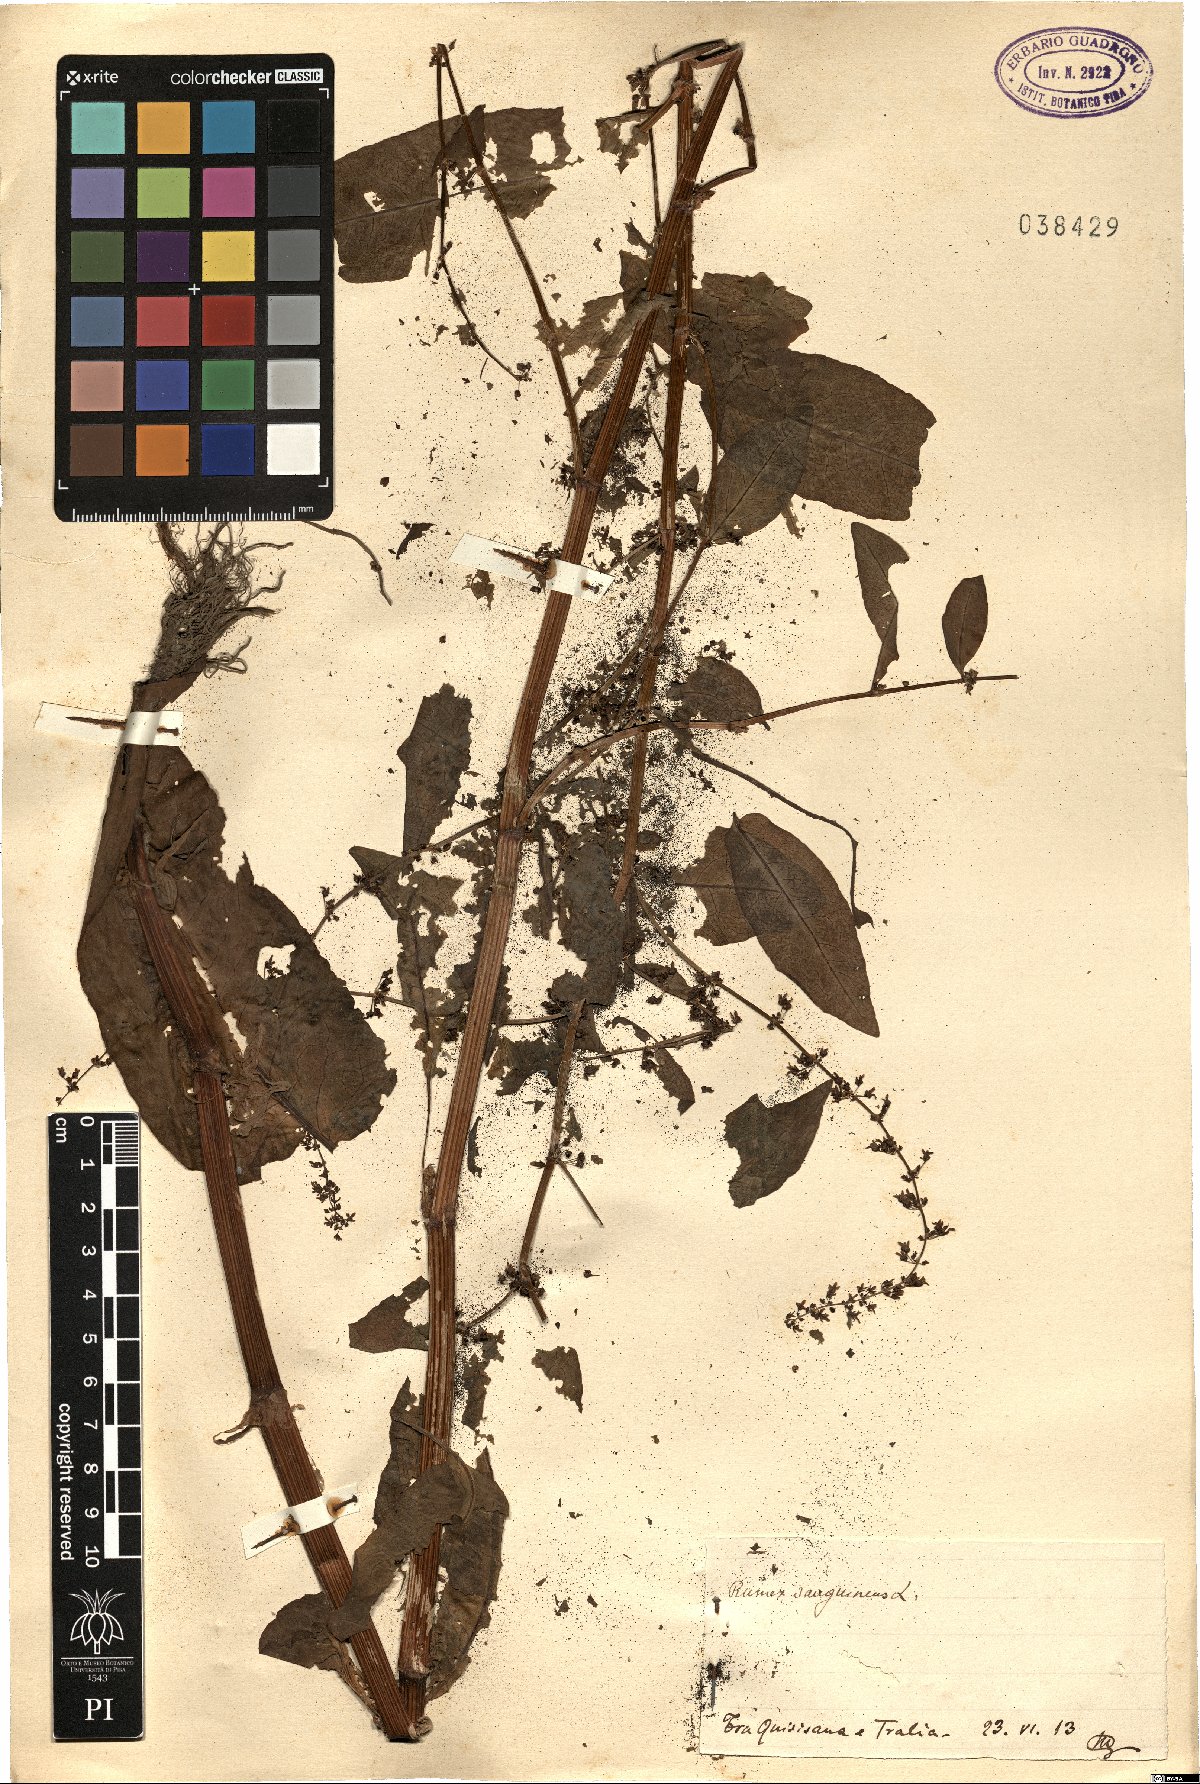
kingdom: Plantae
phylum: Tracheophyta
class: Magnoliopsida
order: Caryophyllales
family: Polygonaceae
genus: Rumex
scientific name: Rumex sanguineus
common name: Wood dock
